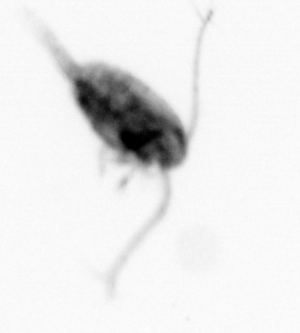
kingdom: Animalia
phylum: Arthropoda
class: Copepoda
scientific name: Copepoda
